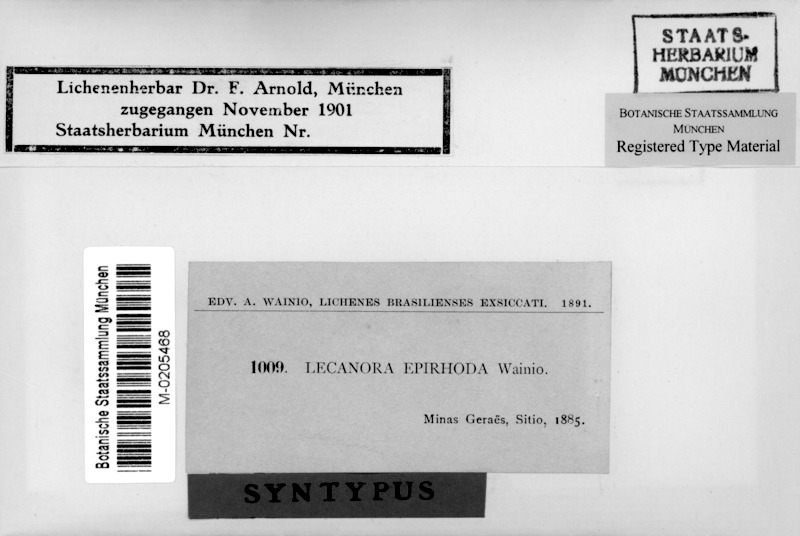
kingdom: Fungi
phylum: Ascomycota
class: Lecanoromycetes
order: Lecanorales
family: Lecanoraceae
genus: Lecanora
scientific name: Lecanora epirhoda
